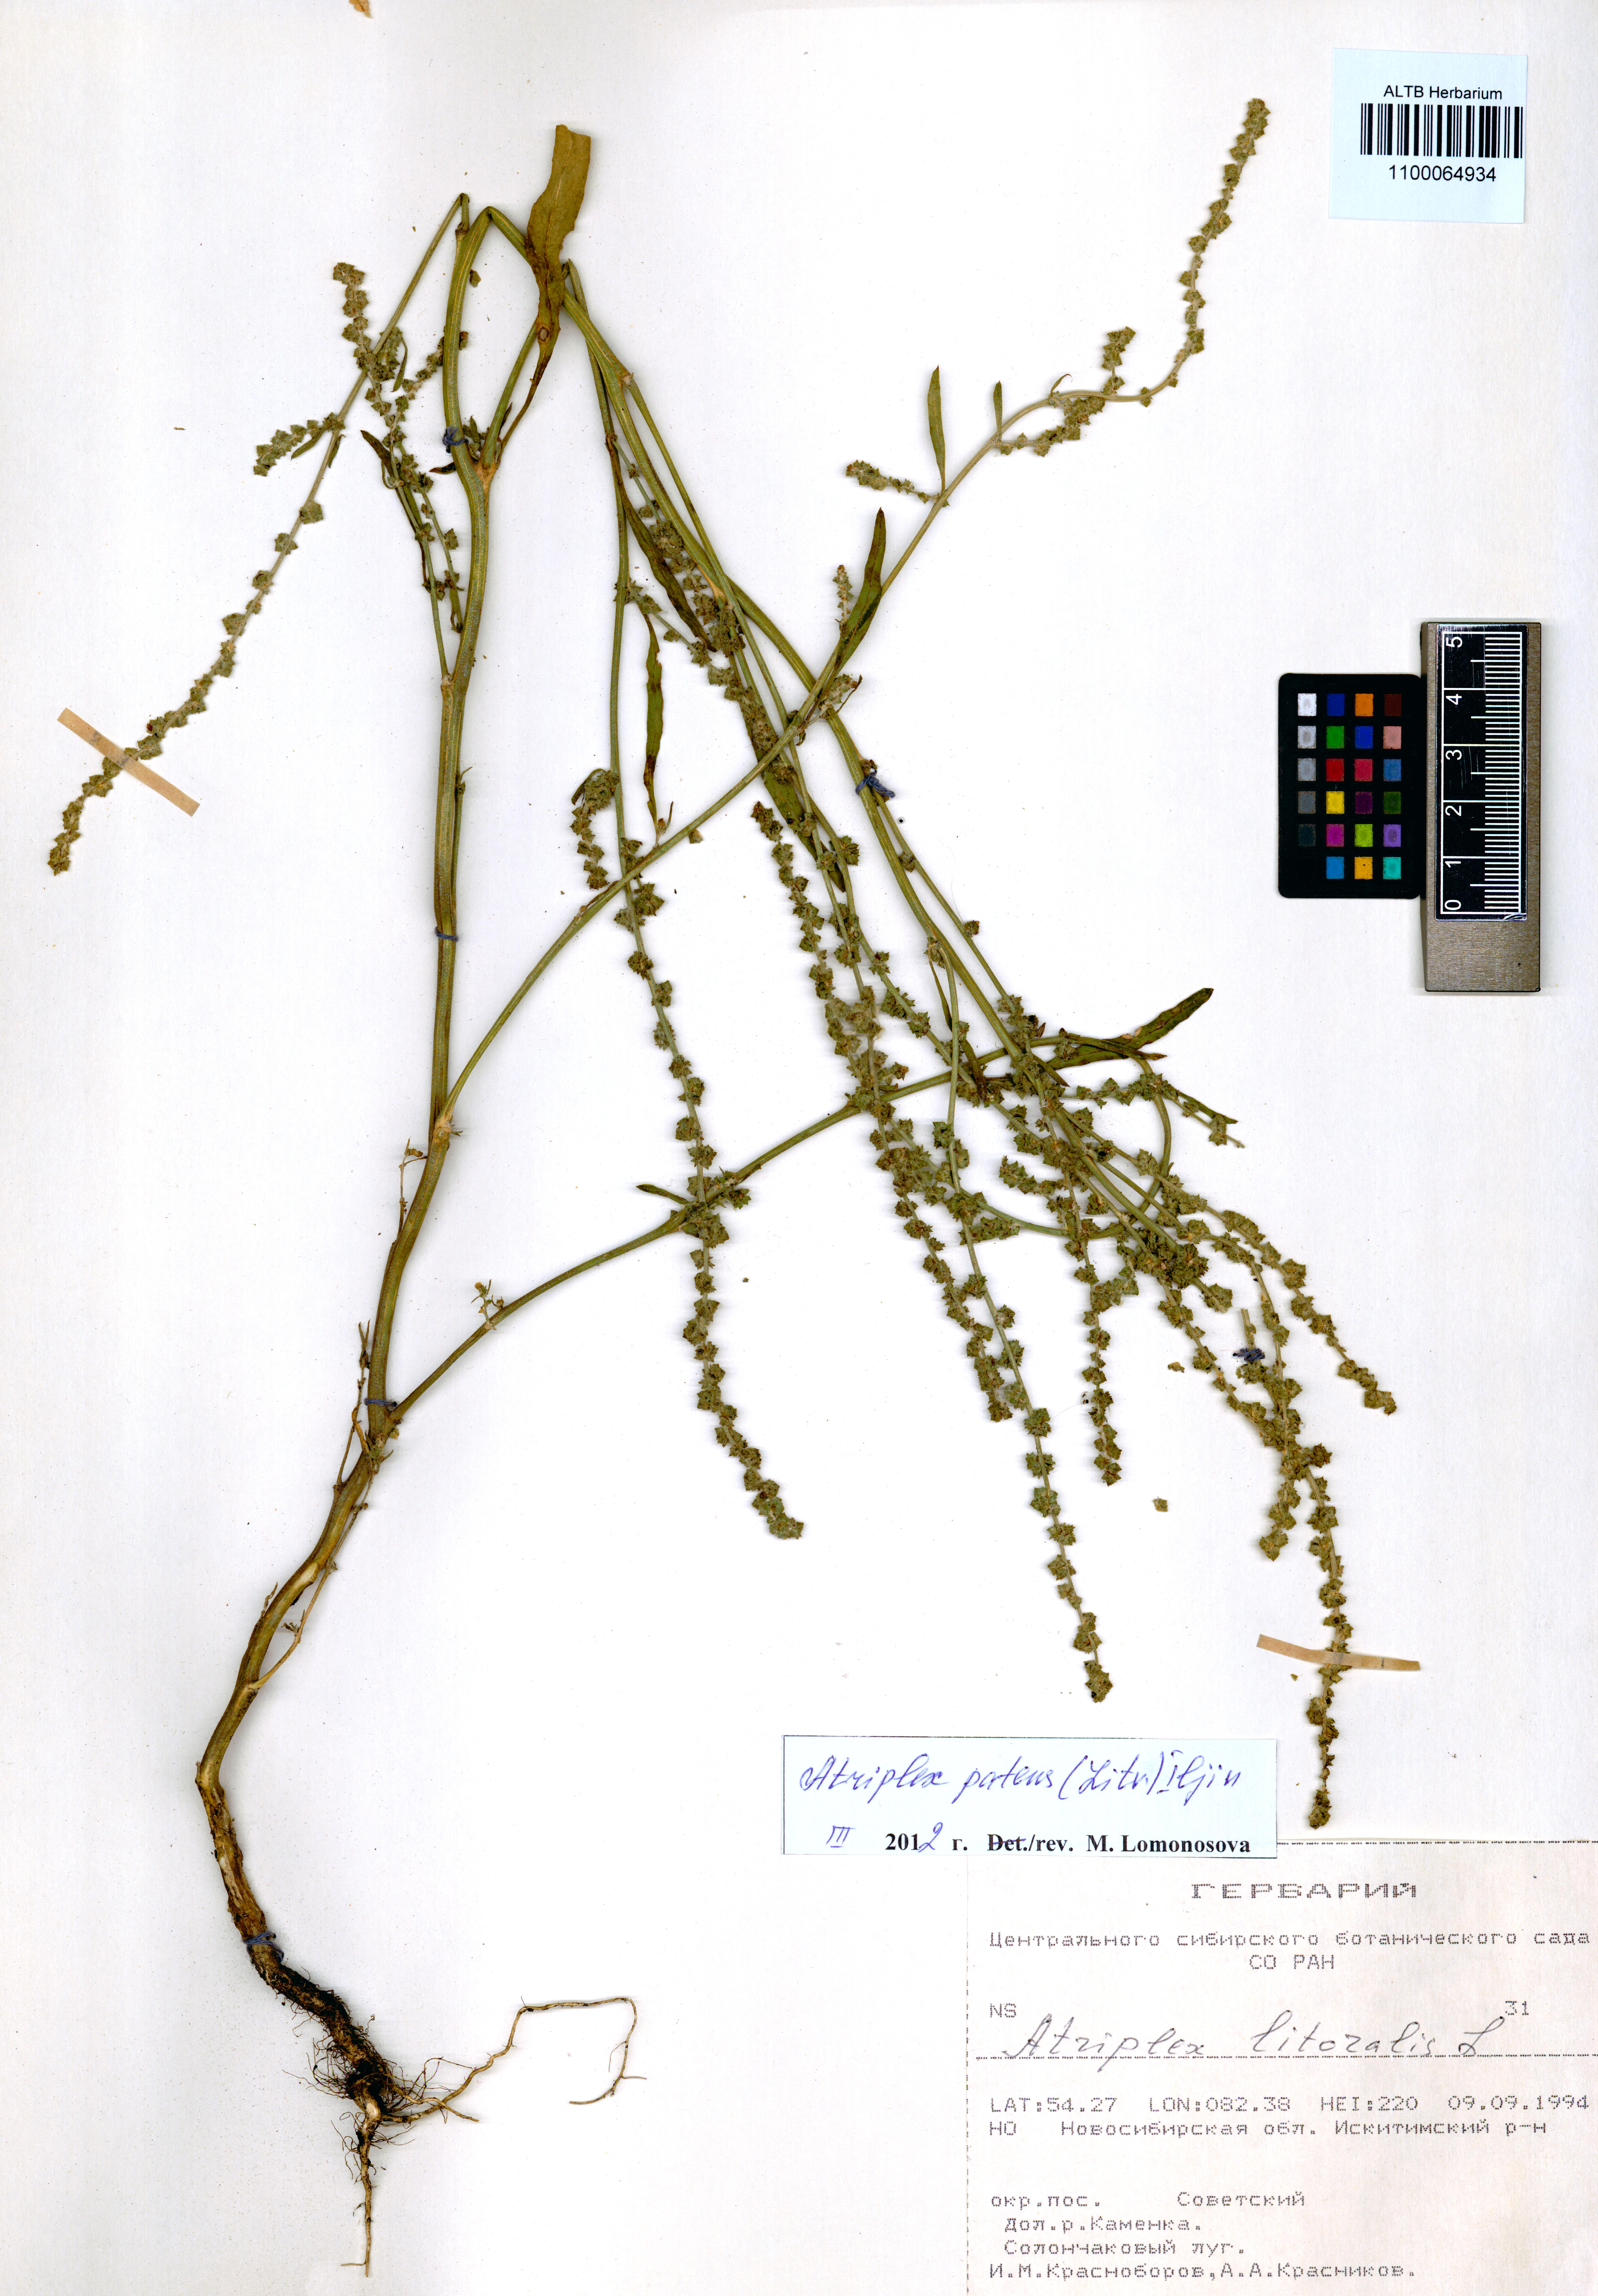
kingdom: Plantae
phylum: Tracheophyta
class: Magnoliopsida
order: Caryophyllales
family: Amaranthaceae
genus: Atriplex
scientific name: Atriplex patens
